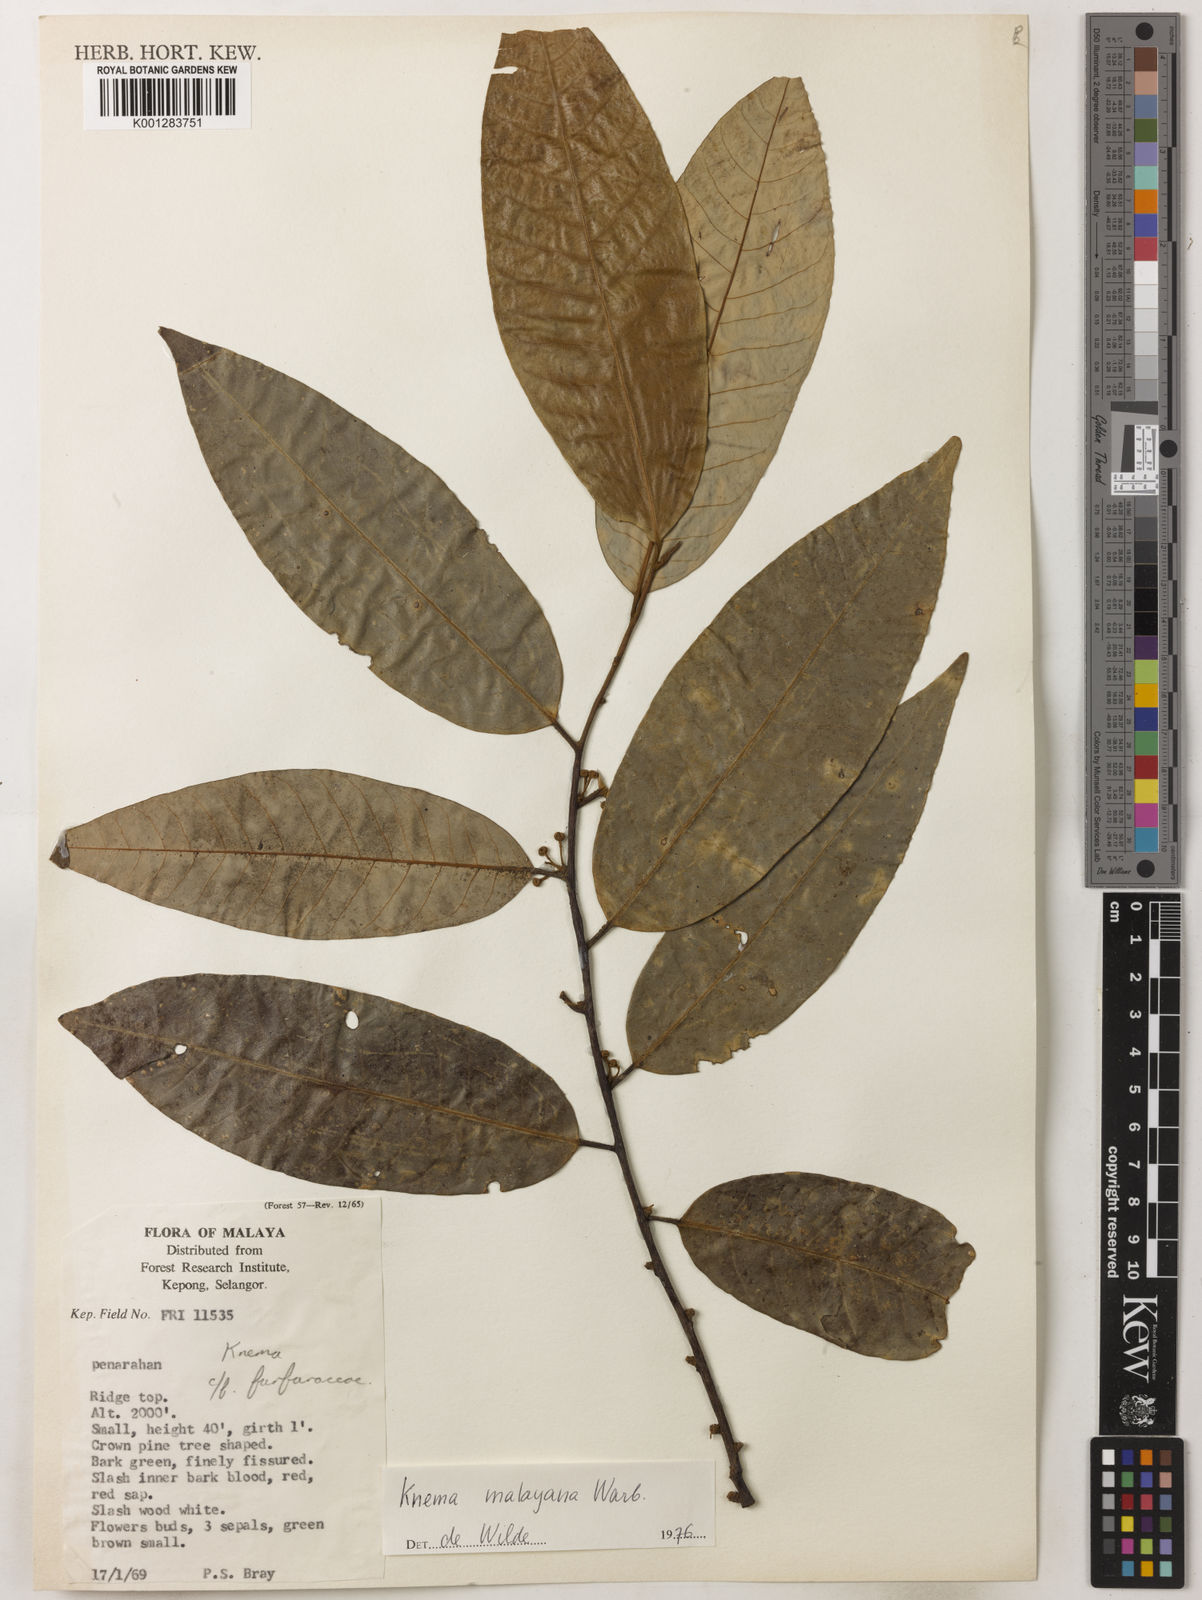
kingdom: Plantae
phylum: Tracheophyta
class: Magnoliopsida
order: Magnoliales
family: Myristicaceae
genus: Knema
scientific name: Knema malayana
